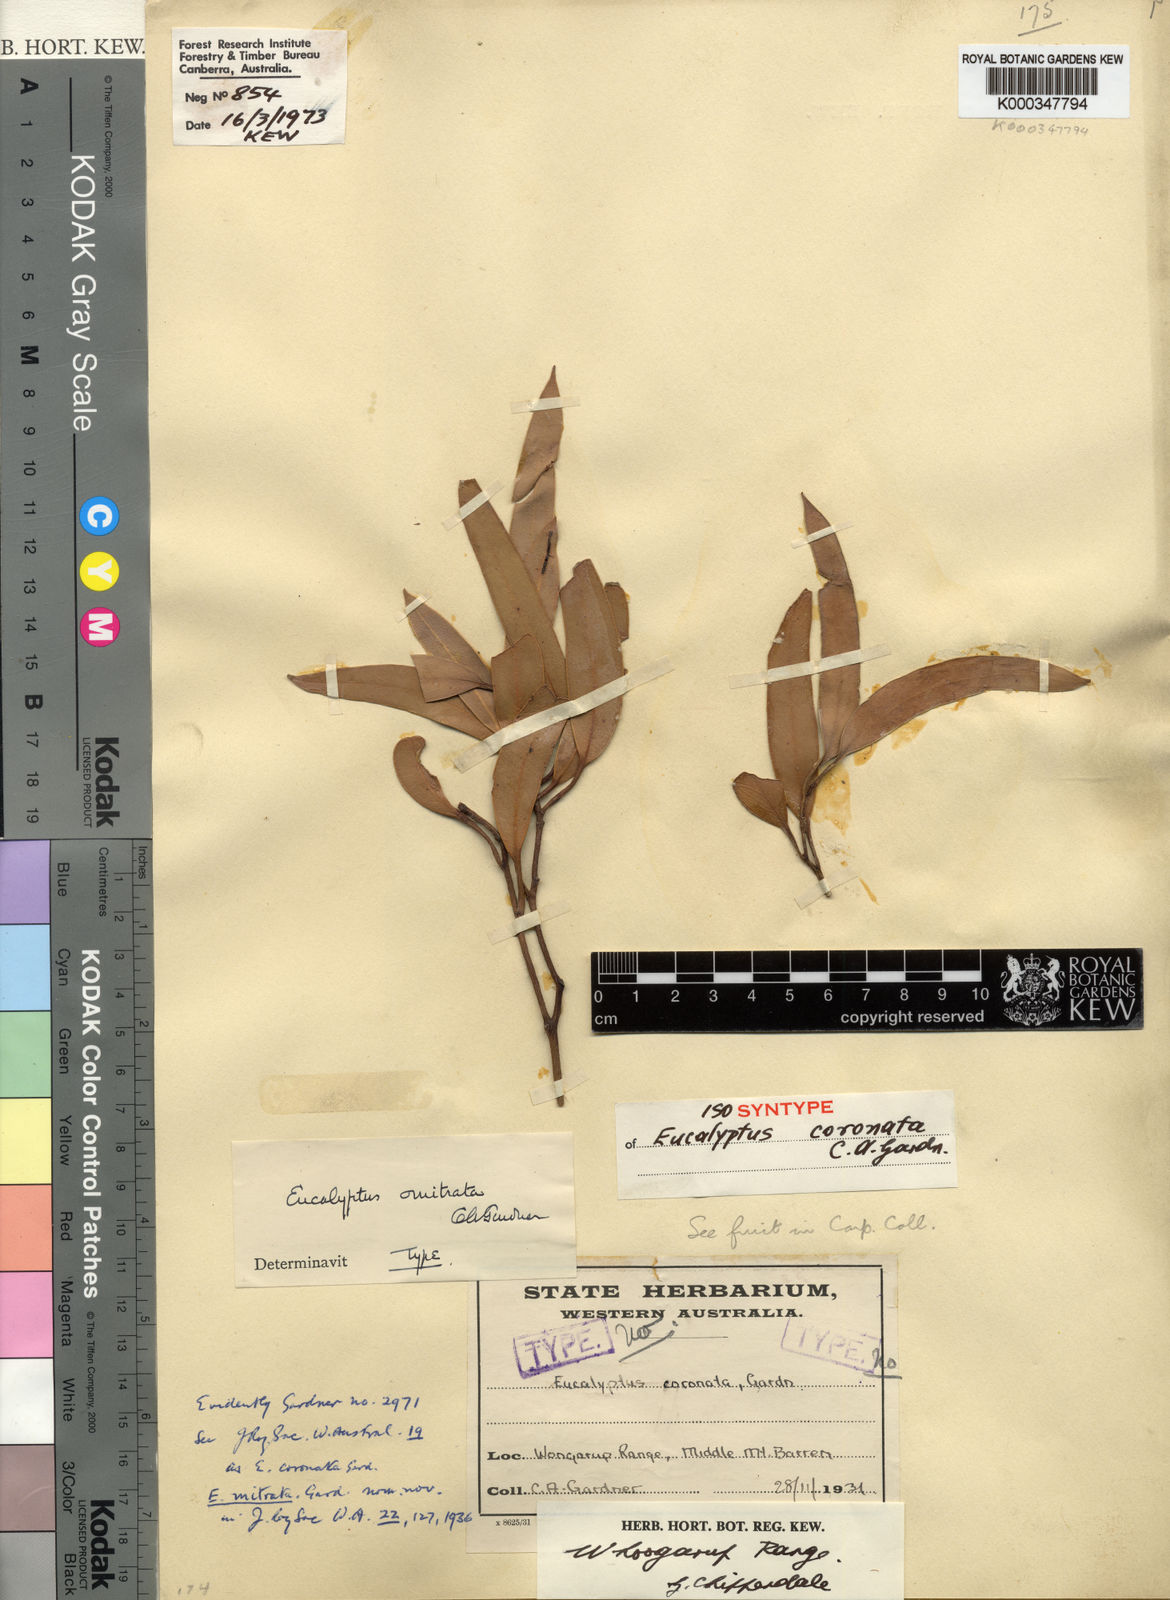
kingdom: Plantae
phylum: Tracheophyta
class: Magnoliopsida
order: Myrtales
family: Myrtaceae
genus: Eucalyptus
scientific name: Eucalyptus coronata
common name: Crowned mallee
